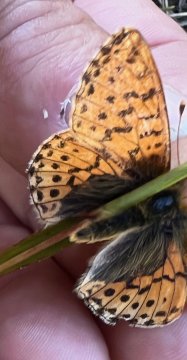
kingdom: Animalia
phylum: Arthropoda
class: Insecta
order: Lepidoptera
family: Nymphalidae
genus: Boloria
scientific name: Boloria napaea
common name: Mountain Fritillary
